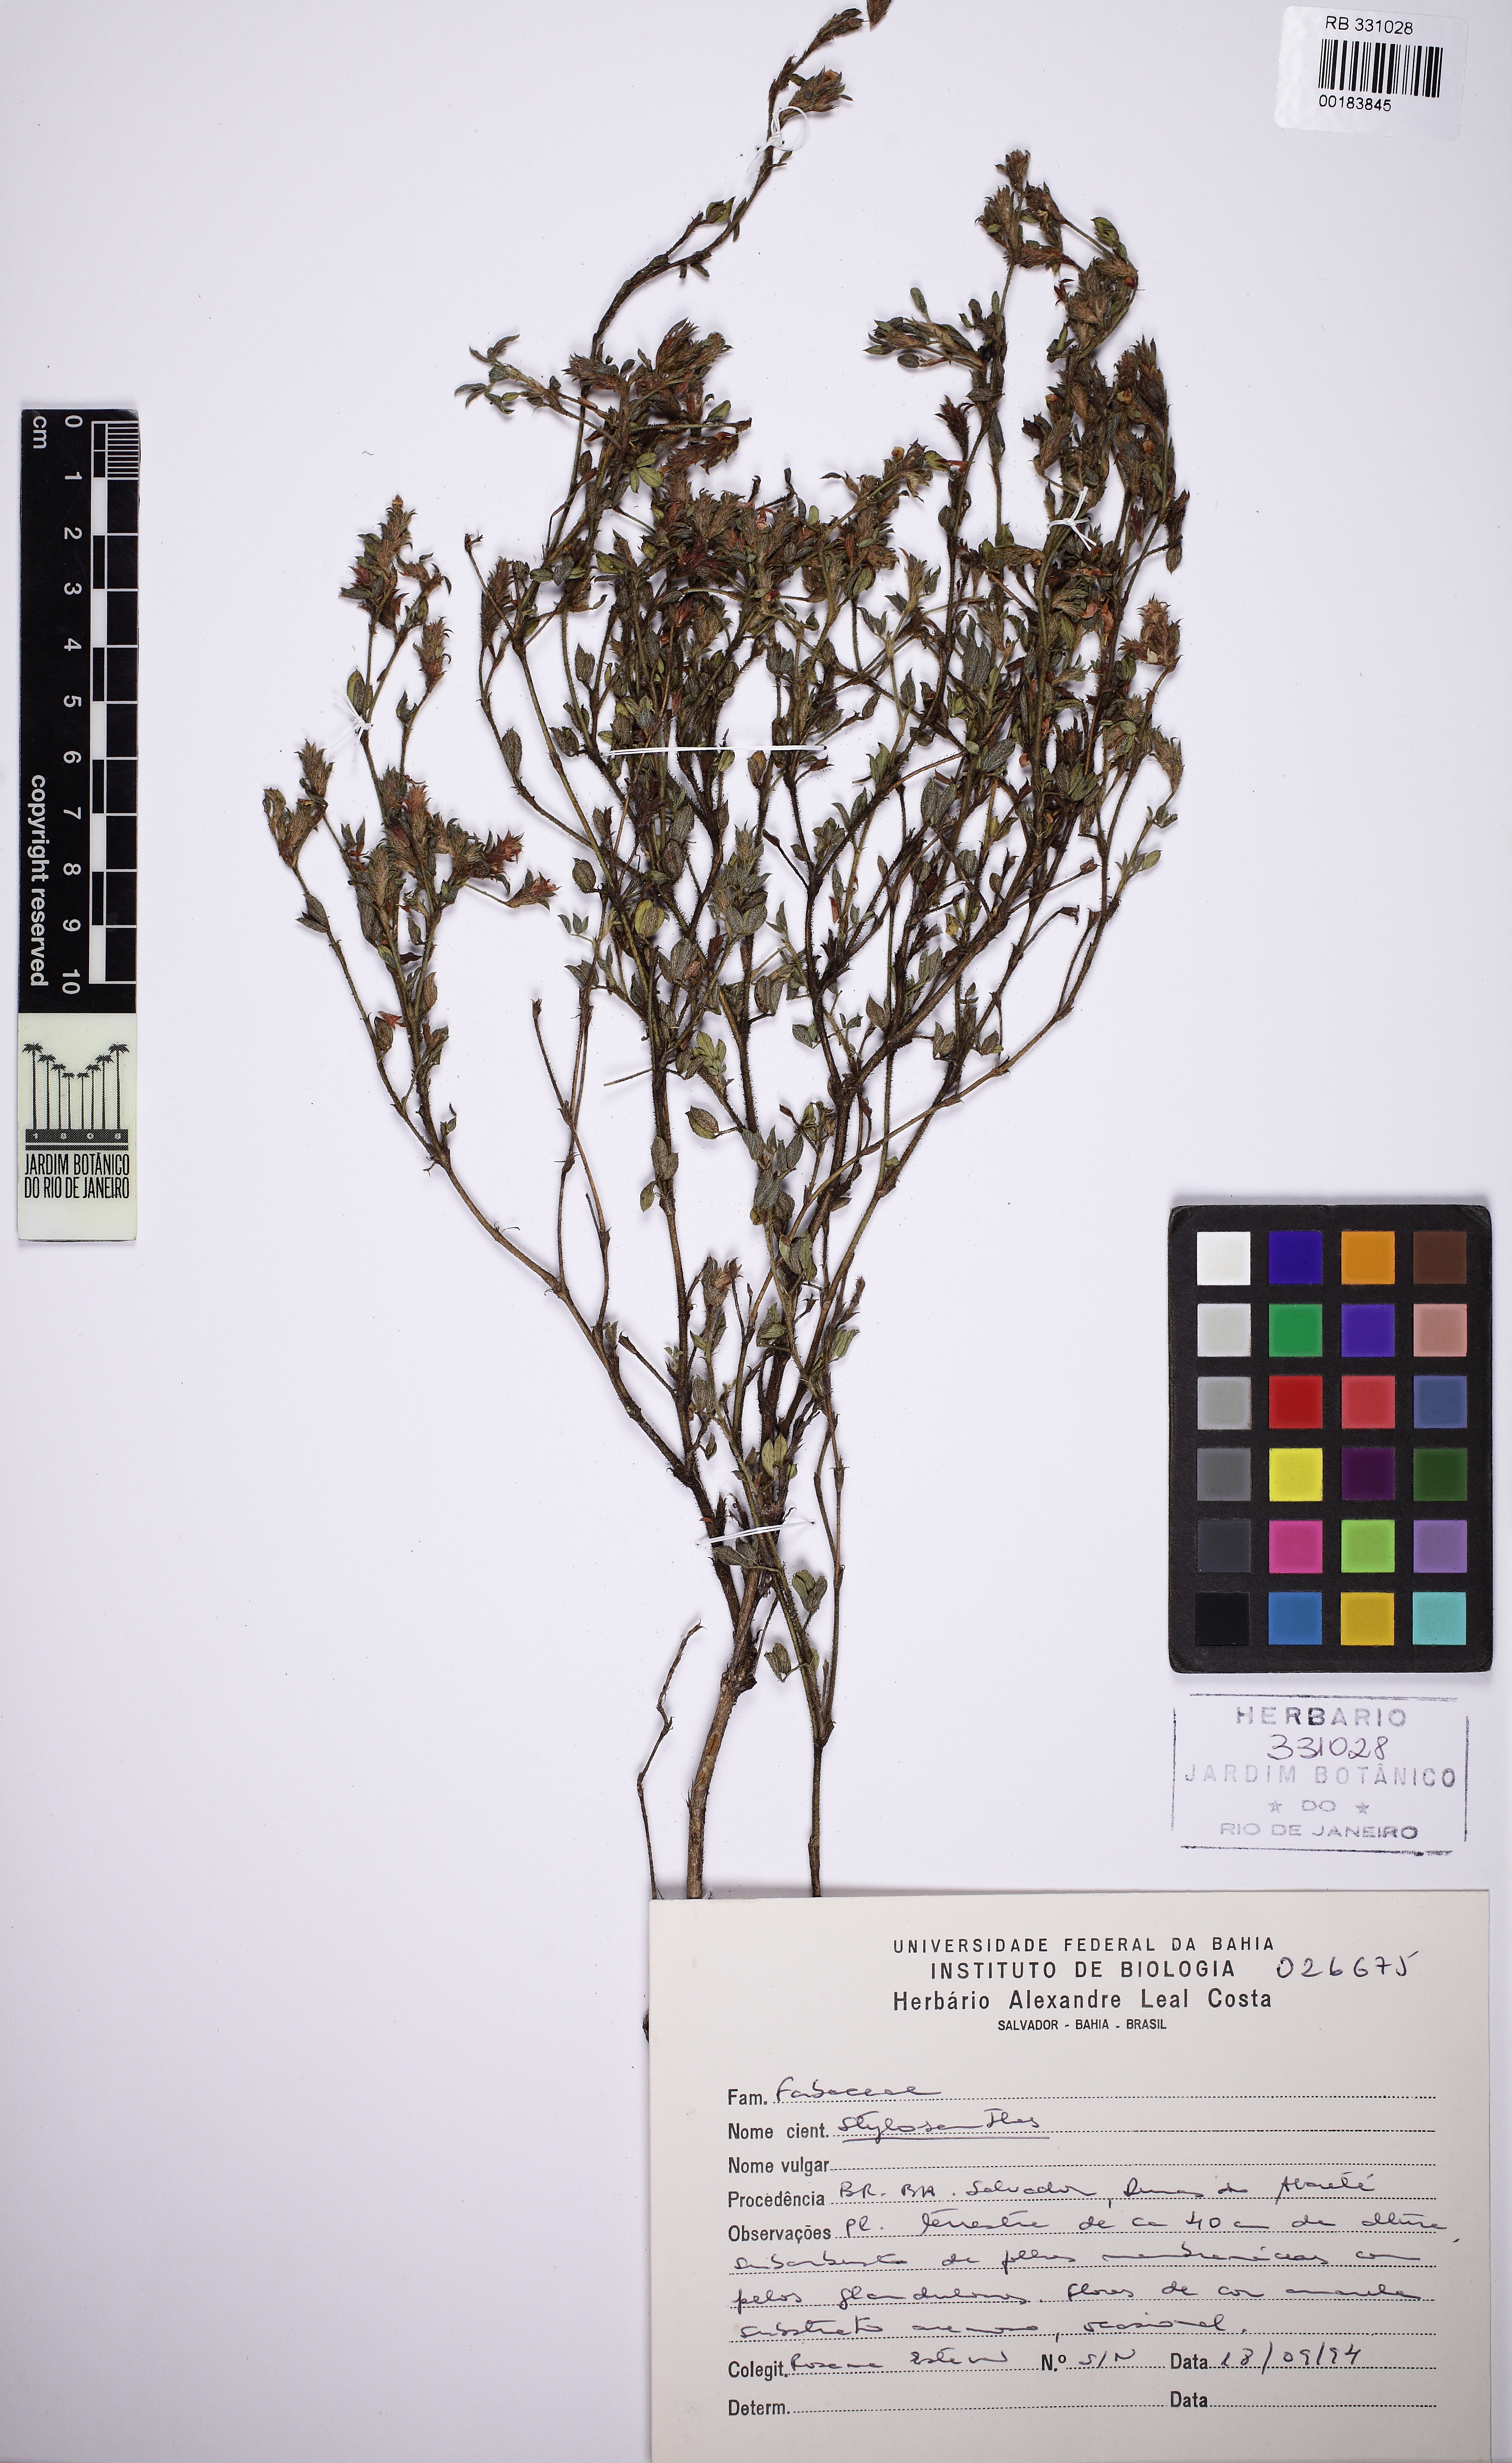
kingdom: Plantae
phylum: Tracheophyta
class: Magnoliopsida
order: Fabales
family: Fabaceae
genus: Stylosanthes
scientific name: Stylosanthes
